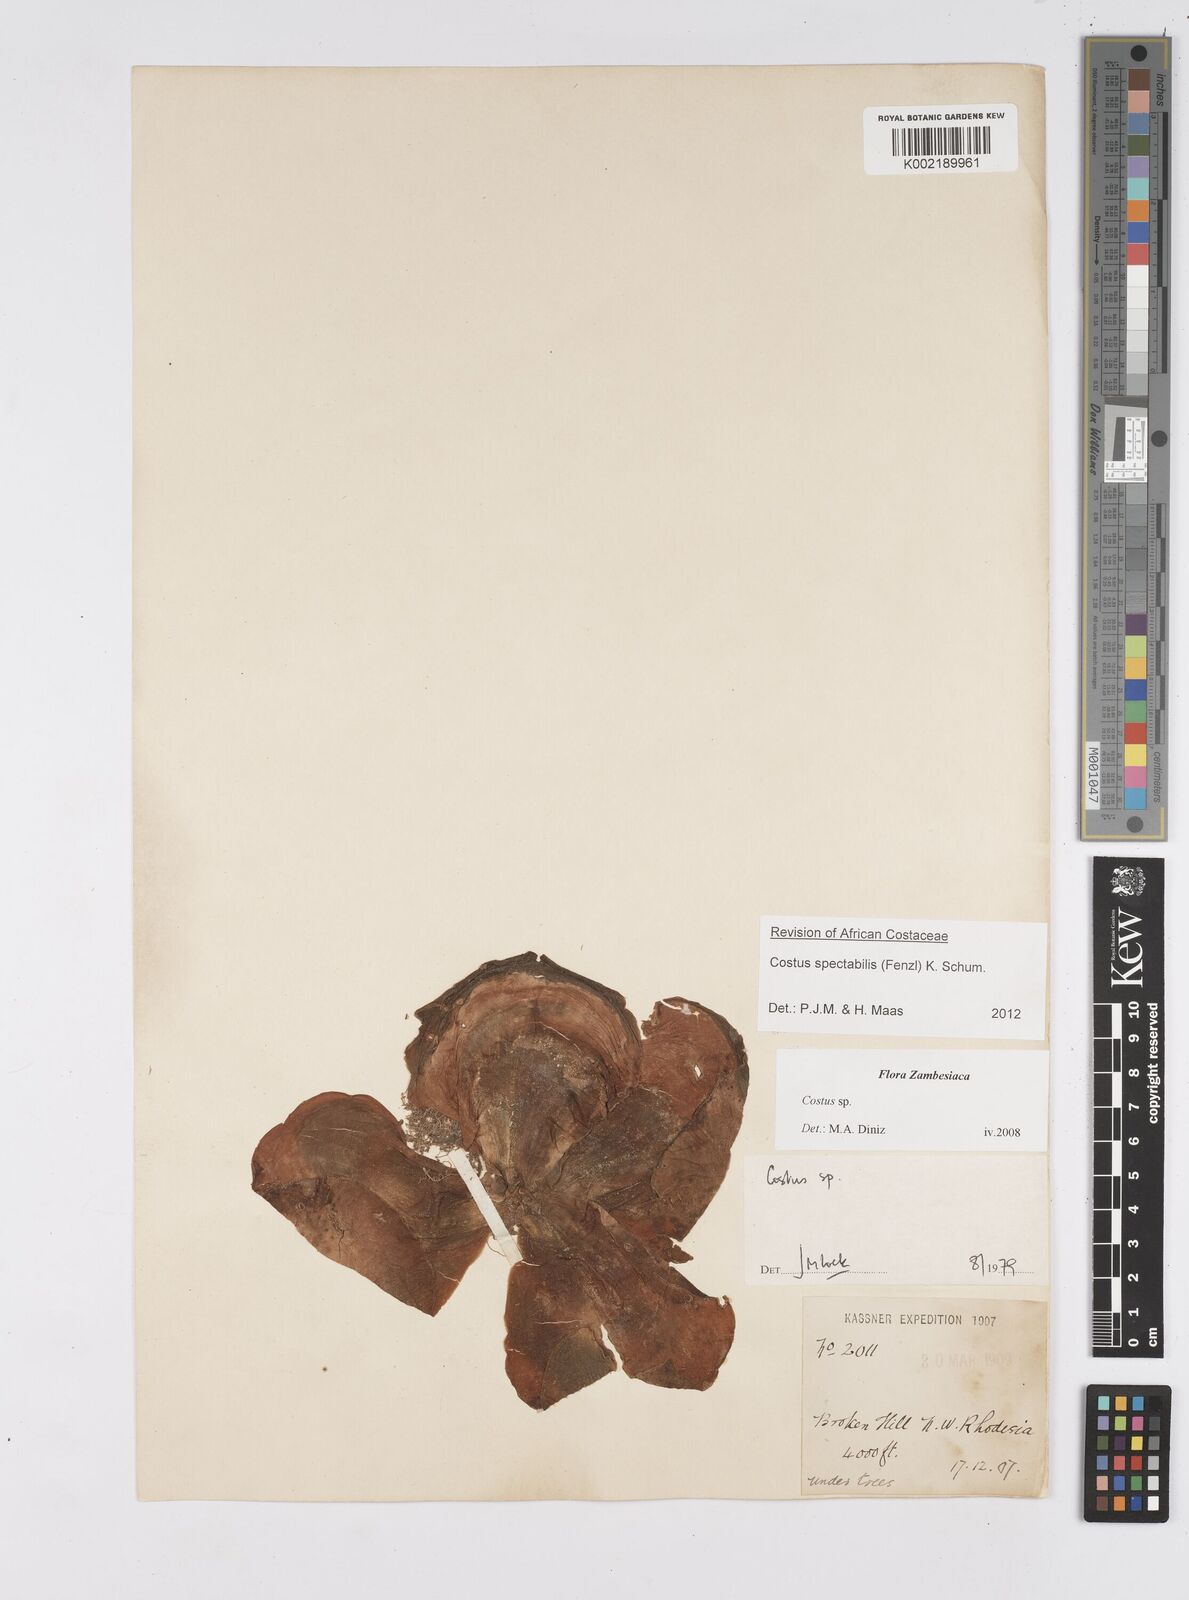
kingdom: Plantae
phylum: Tracheophyta
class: Liliopsida
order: Zingiberales
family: Costaceae
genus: Costus
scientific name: Costus spectabilis
